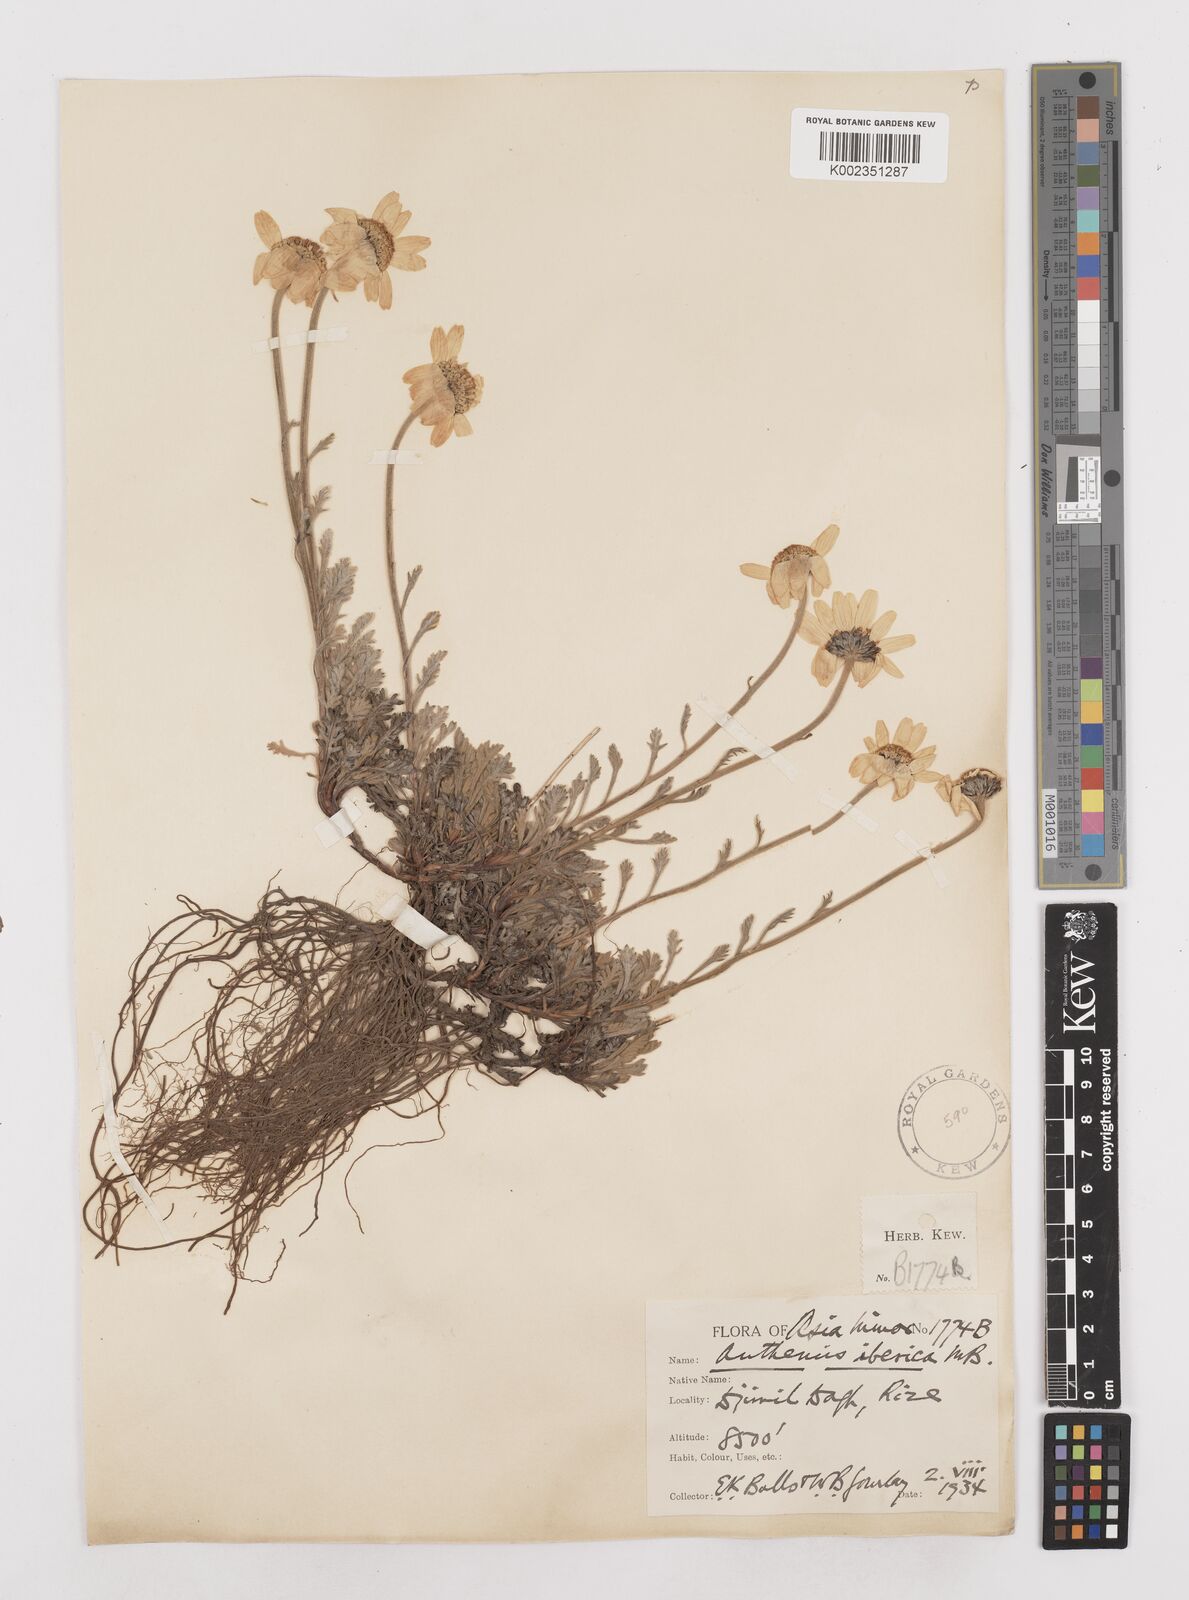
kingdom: Plantae
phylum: Tracheophyta
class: Magnoliopsida
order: Asterales
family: Asteraceae
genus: Anthemis
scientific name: Anthemis cretica
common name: Mountain dog-daisy
